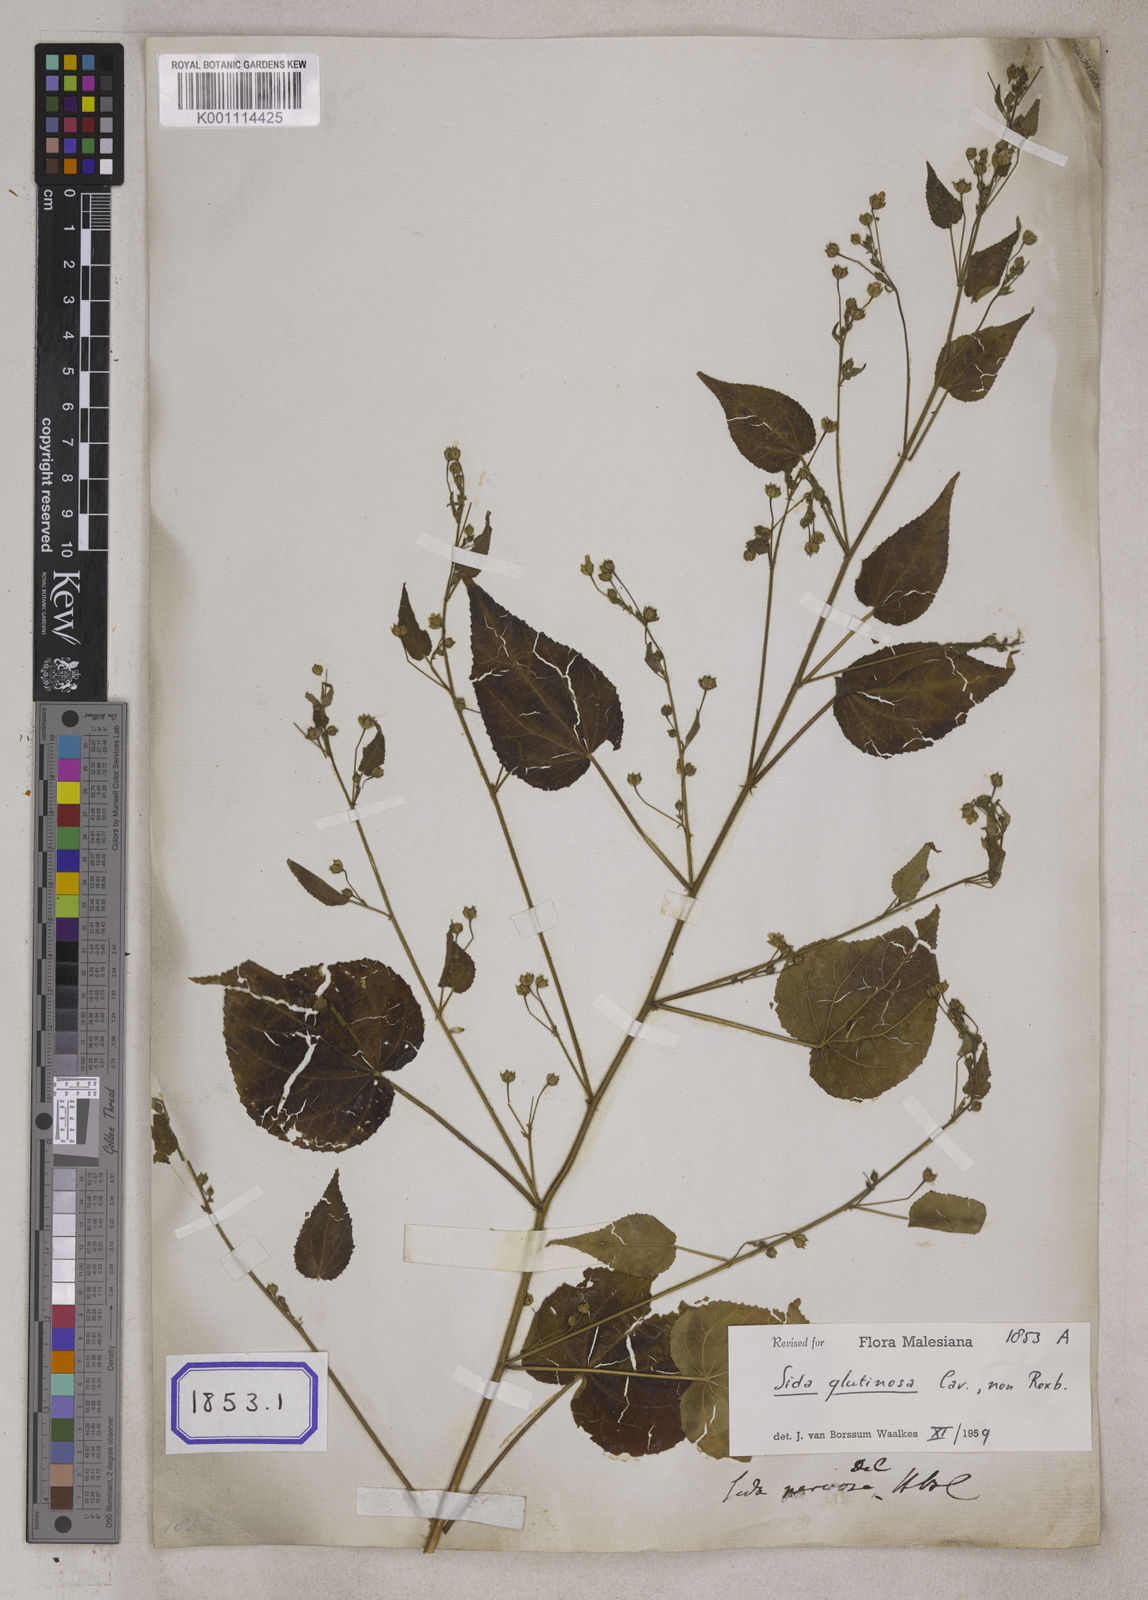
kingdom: Plantae
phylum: Tracheophyta
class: Magnoliopsida
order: Malvales
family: Malvaceae
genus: Sida
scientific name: Sida glutinosa
